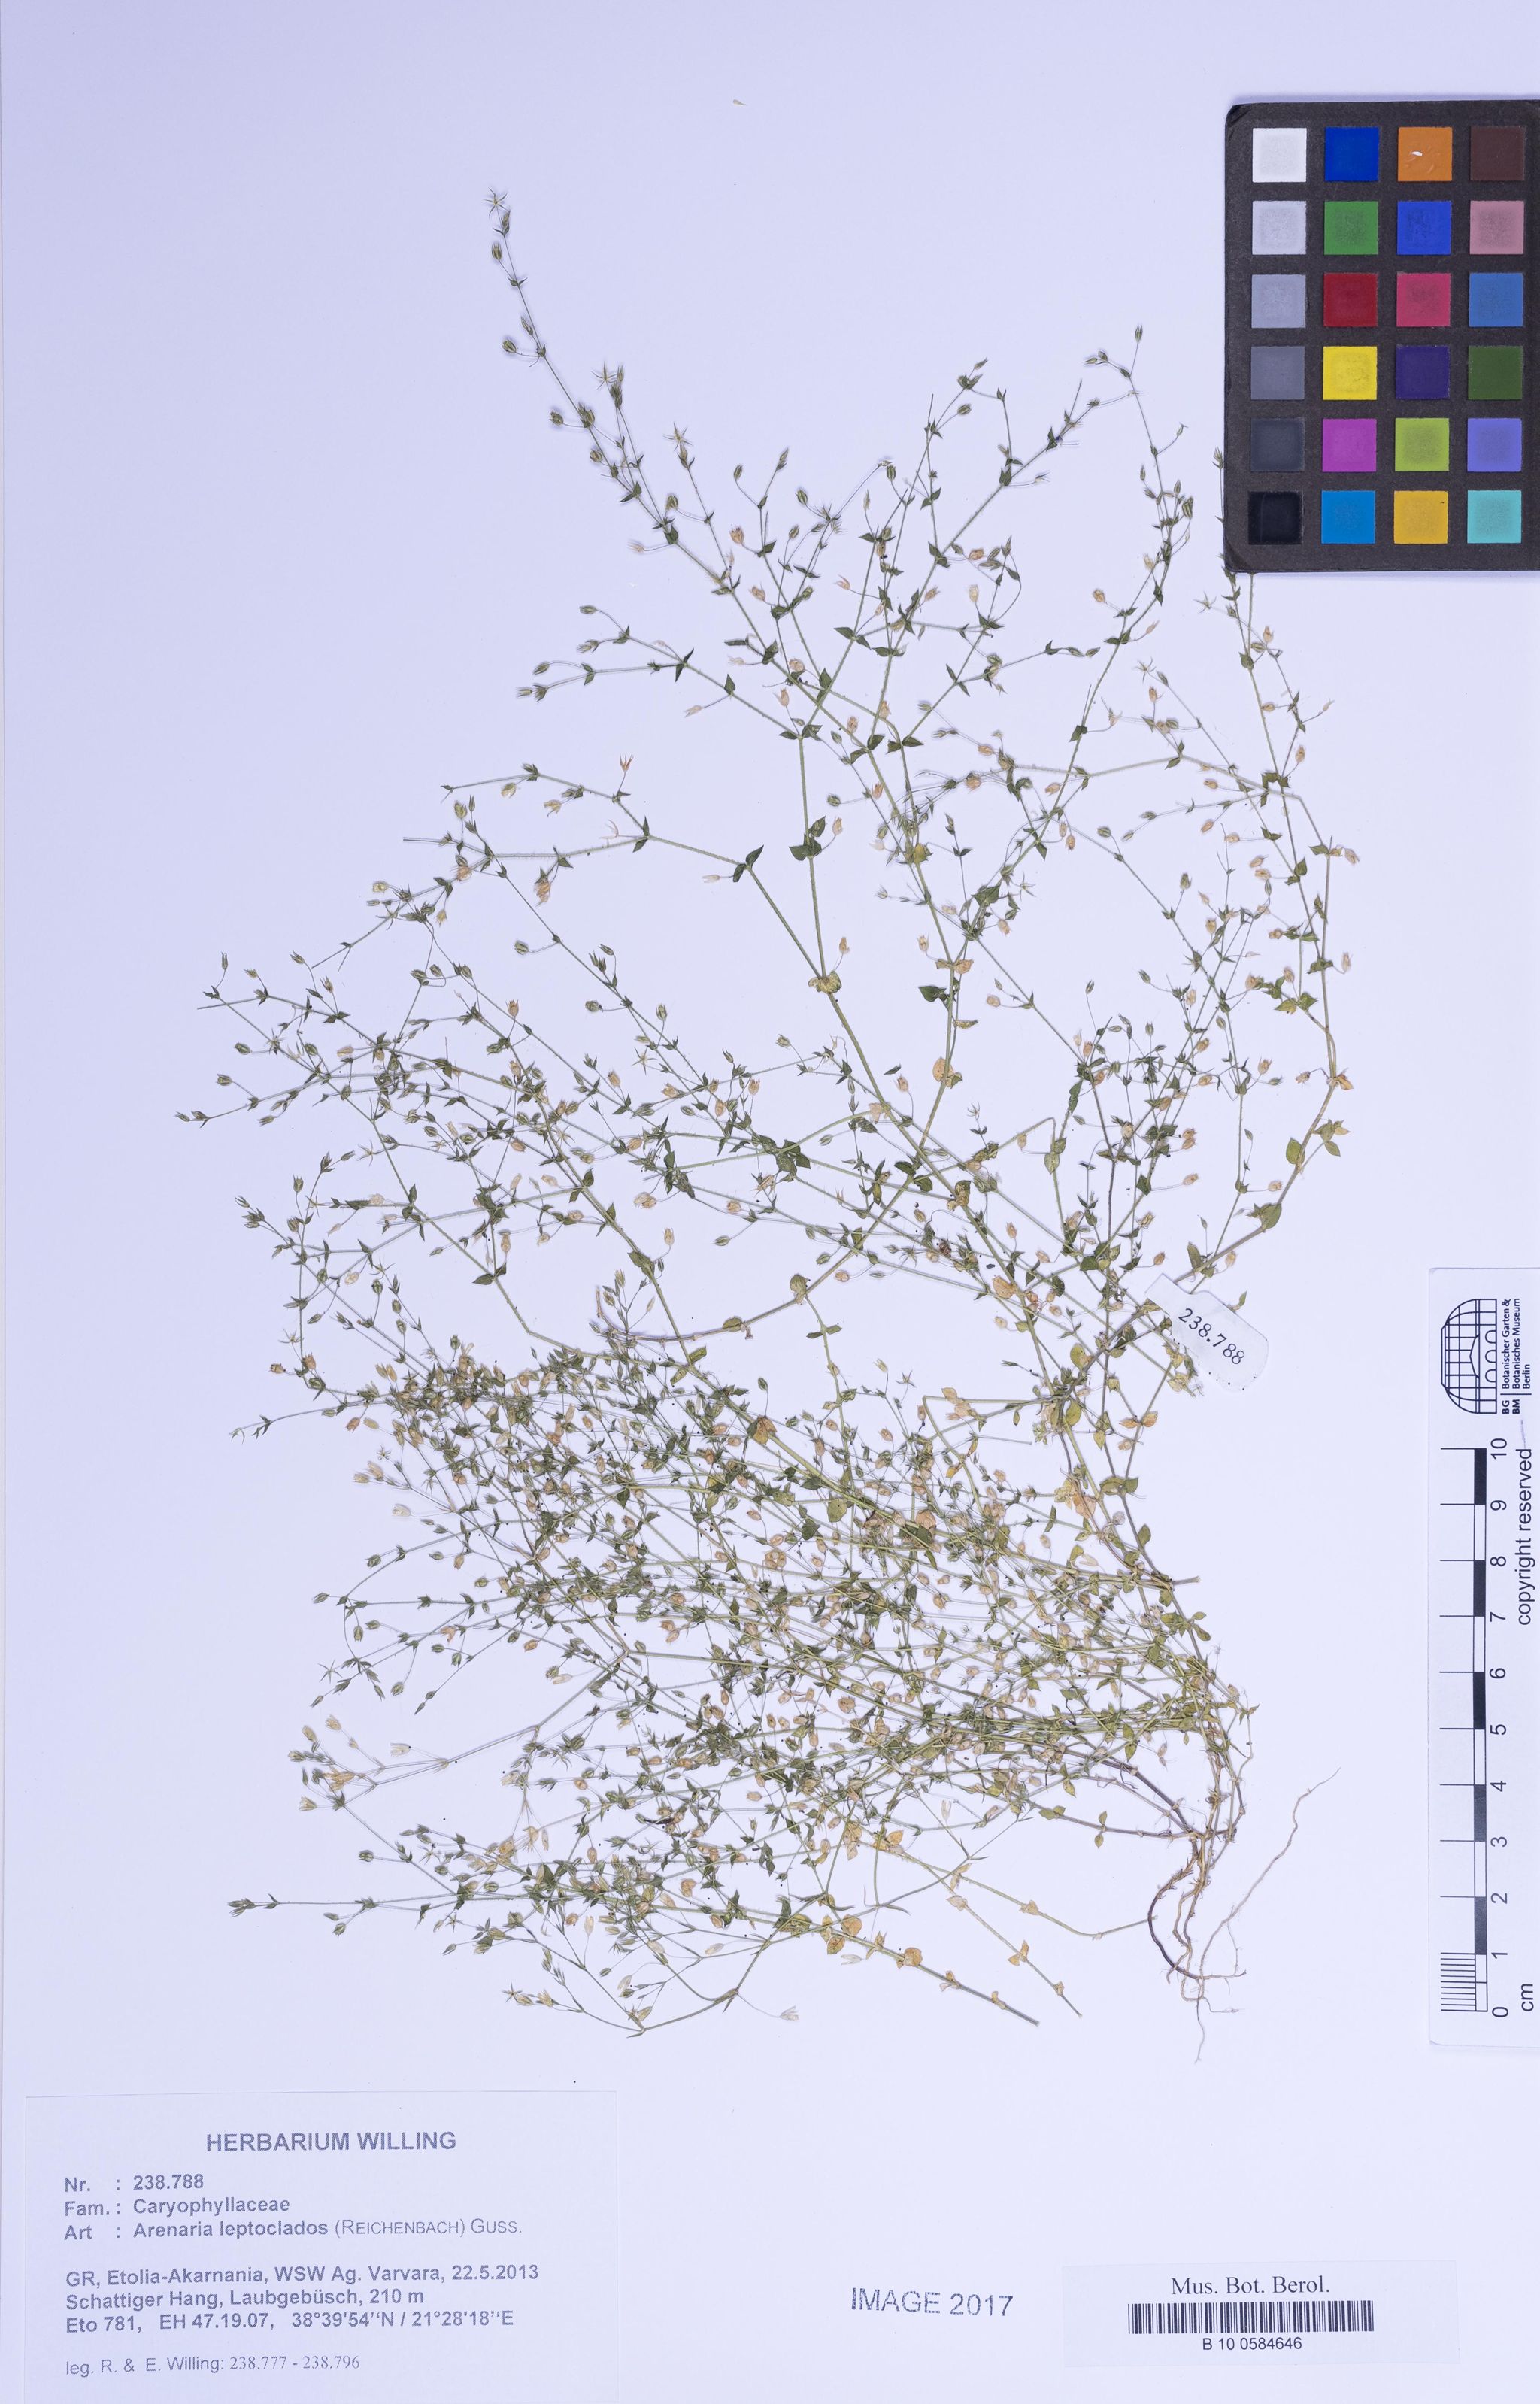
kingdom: Plantae
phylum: Tracheophyta
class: Magnoliopsida
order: Caryophyllales
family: Caryophyllaceae
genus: Arenaria
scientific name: Arenaria leptoclados
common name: Thyme-leaved sandwort
